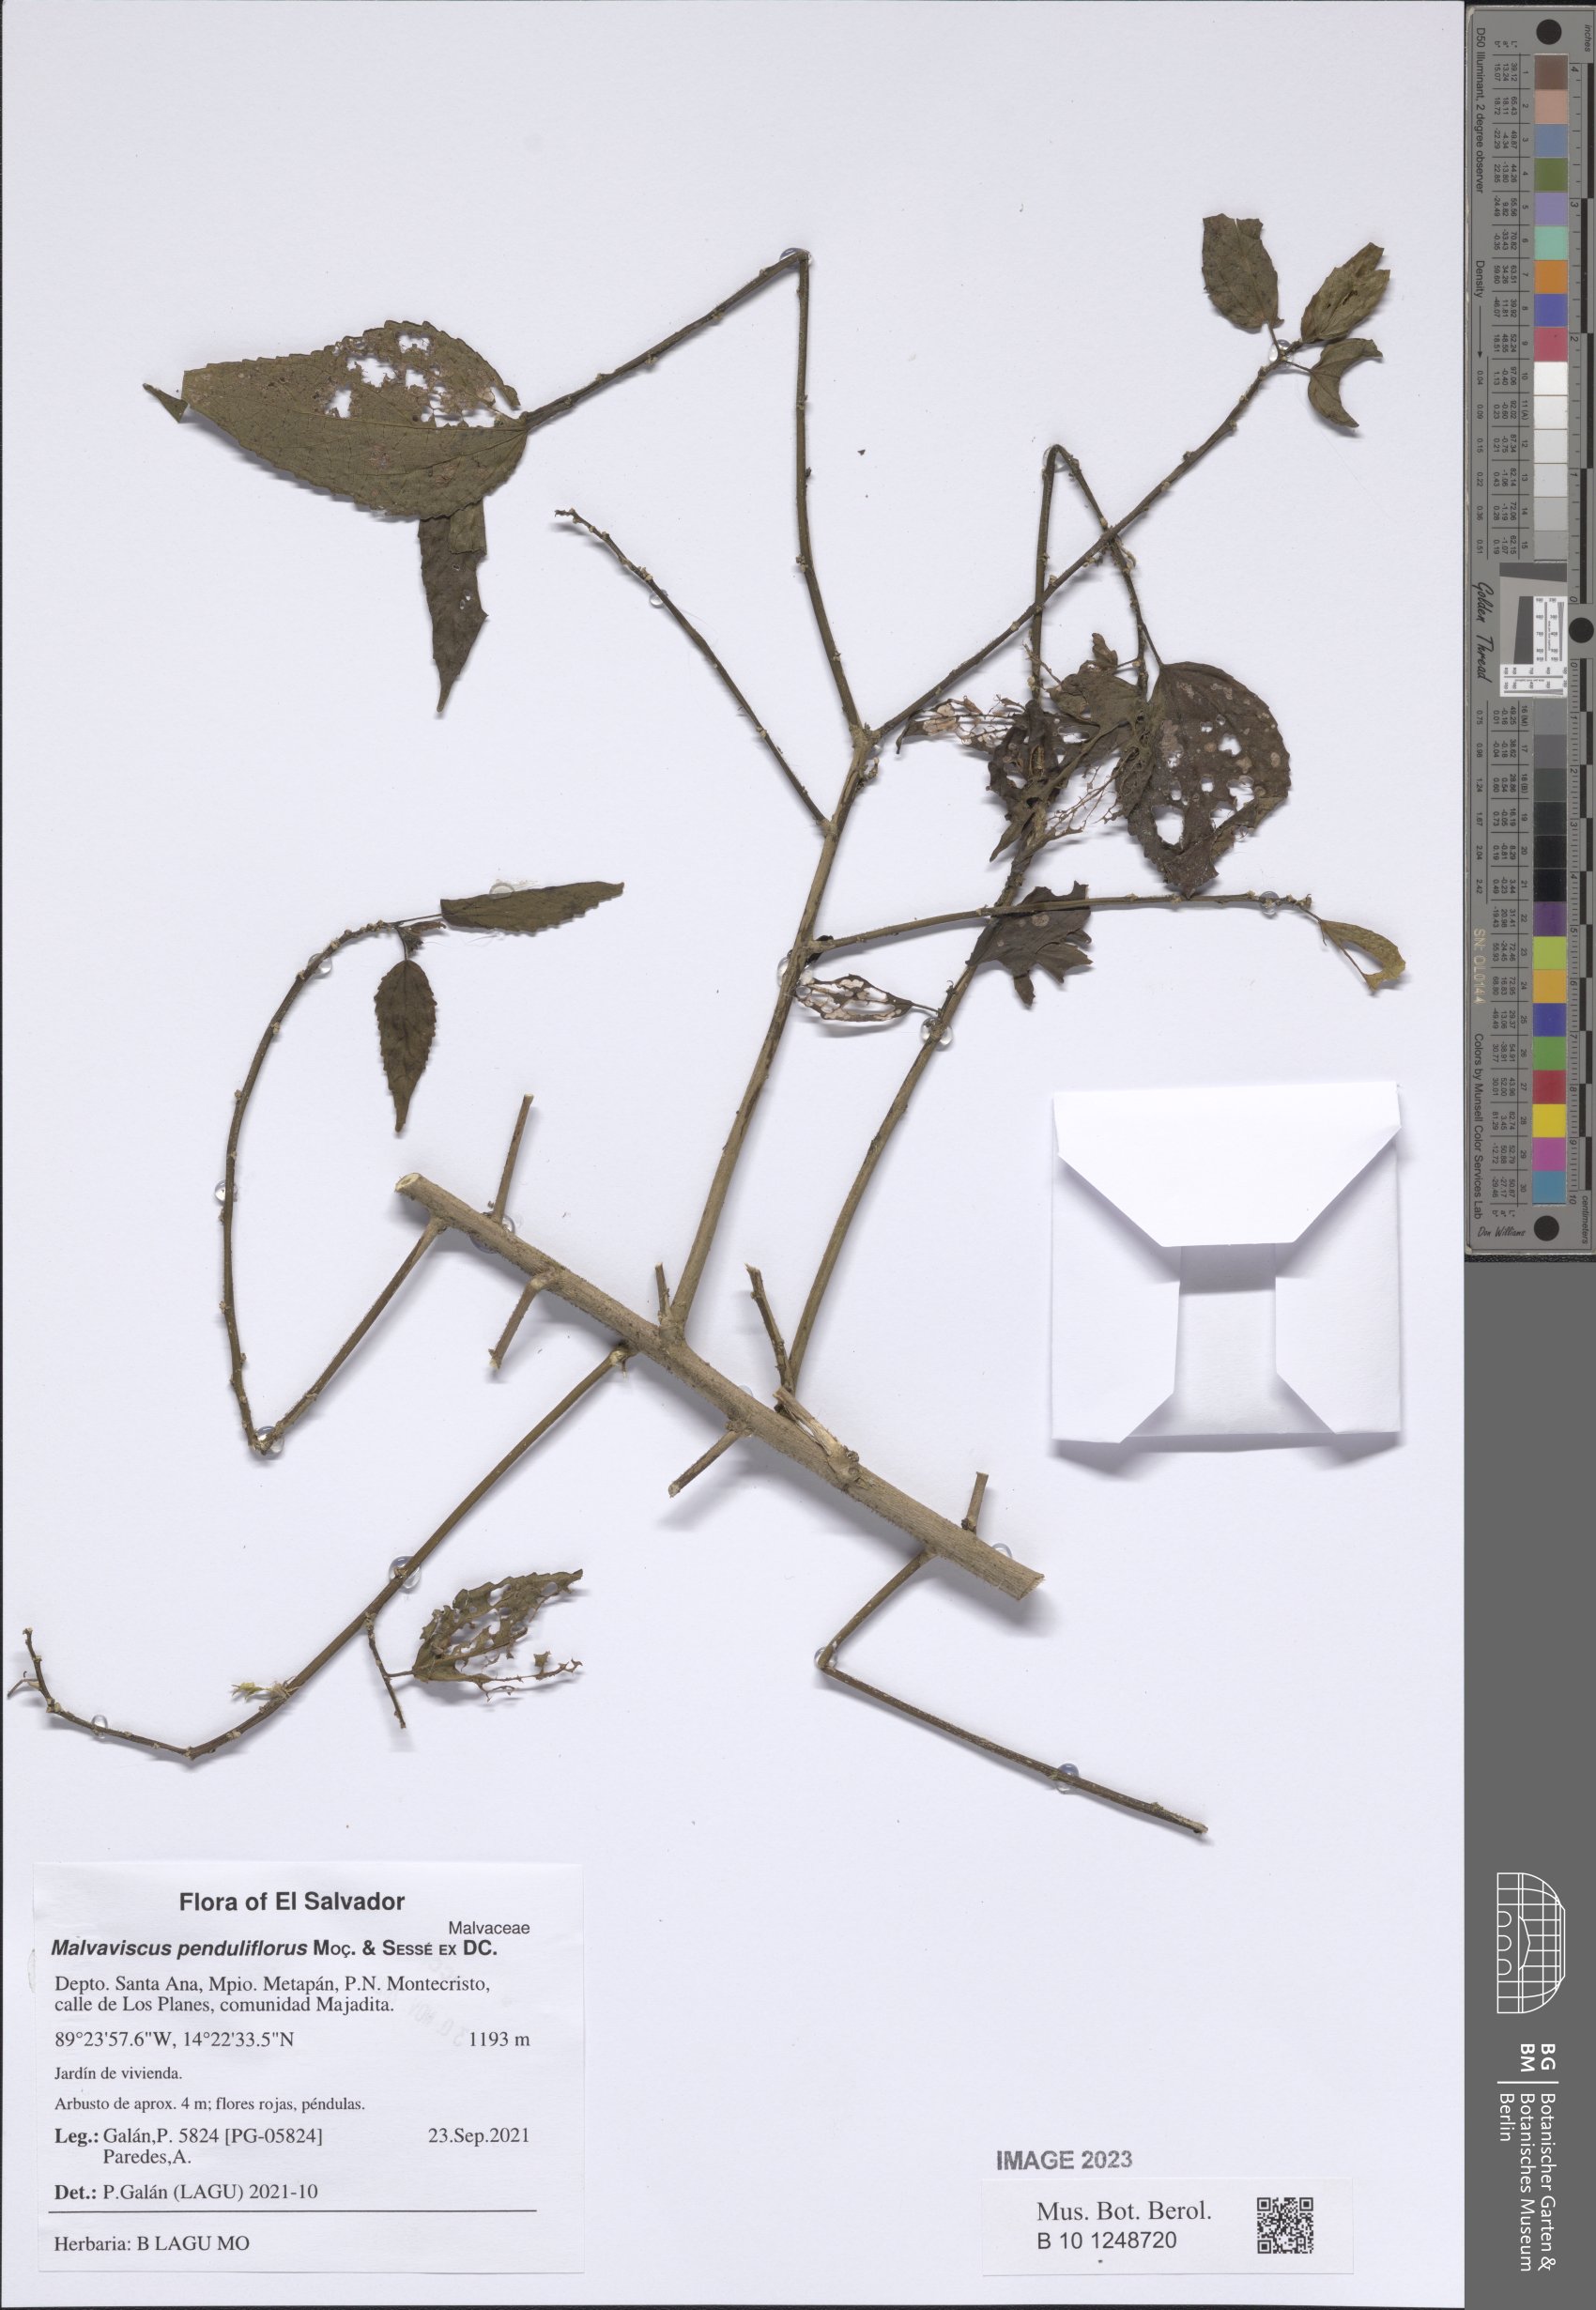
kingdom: Plantae
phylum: Tracheophyta
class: Magnoliopsida
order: Malvales
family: Malvaceae
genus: Malvaviscus
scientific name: Malvaviscus penduliflorus
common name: Mazapan
